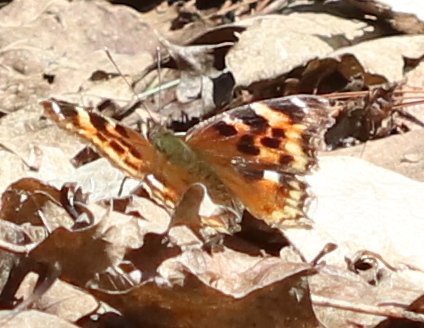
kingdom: Animalia
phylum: Arthropoda
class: Insecta
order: Lepidoptera
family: Nymphalidae
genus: Polygonia
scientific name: Polygonia vaualbum
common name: Compton Tortoiseshell
